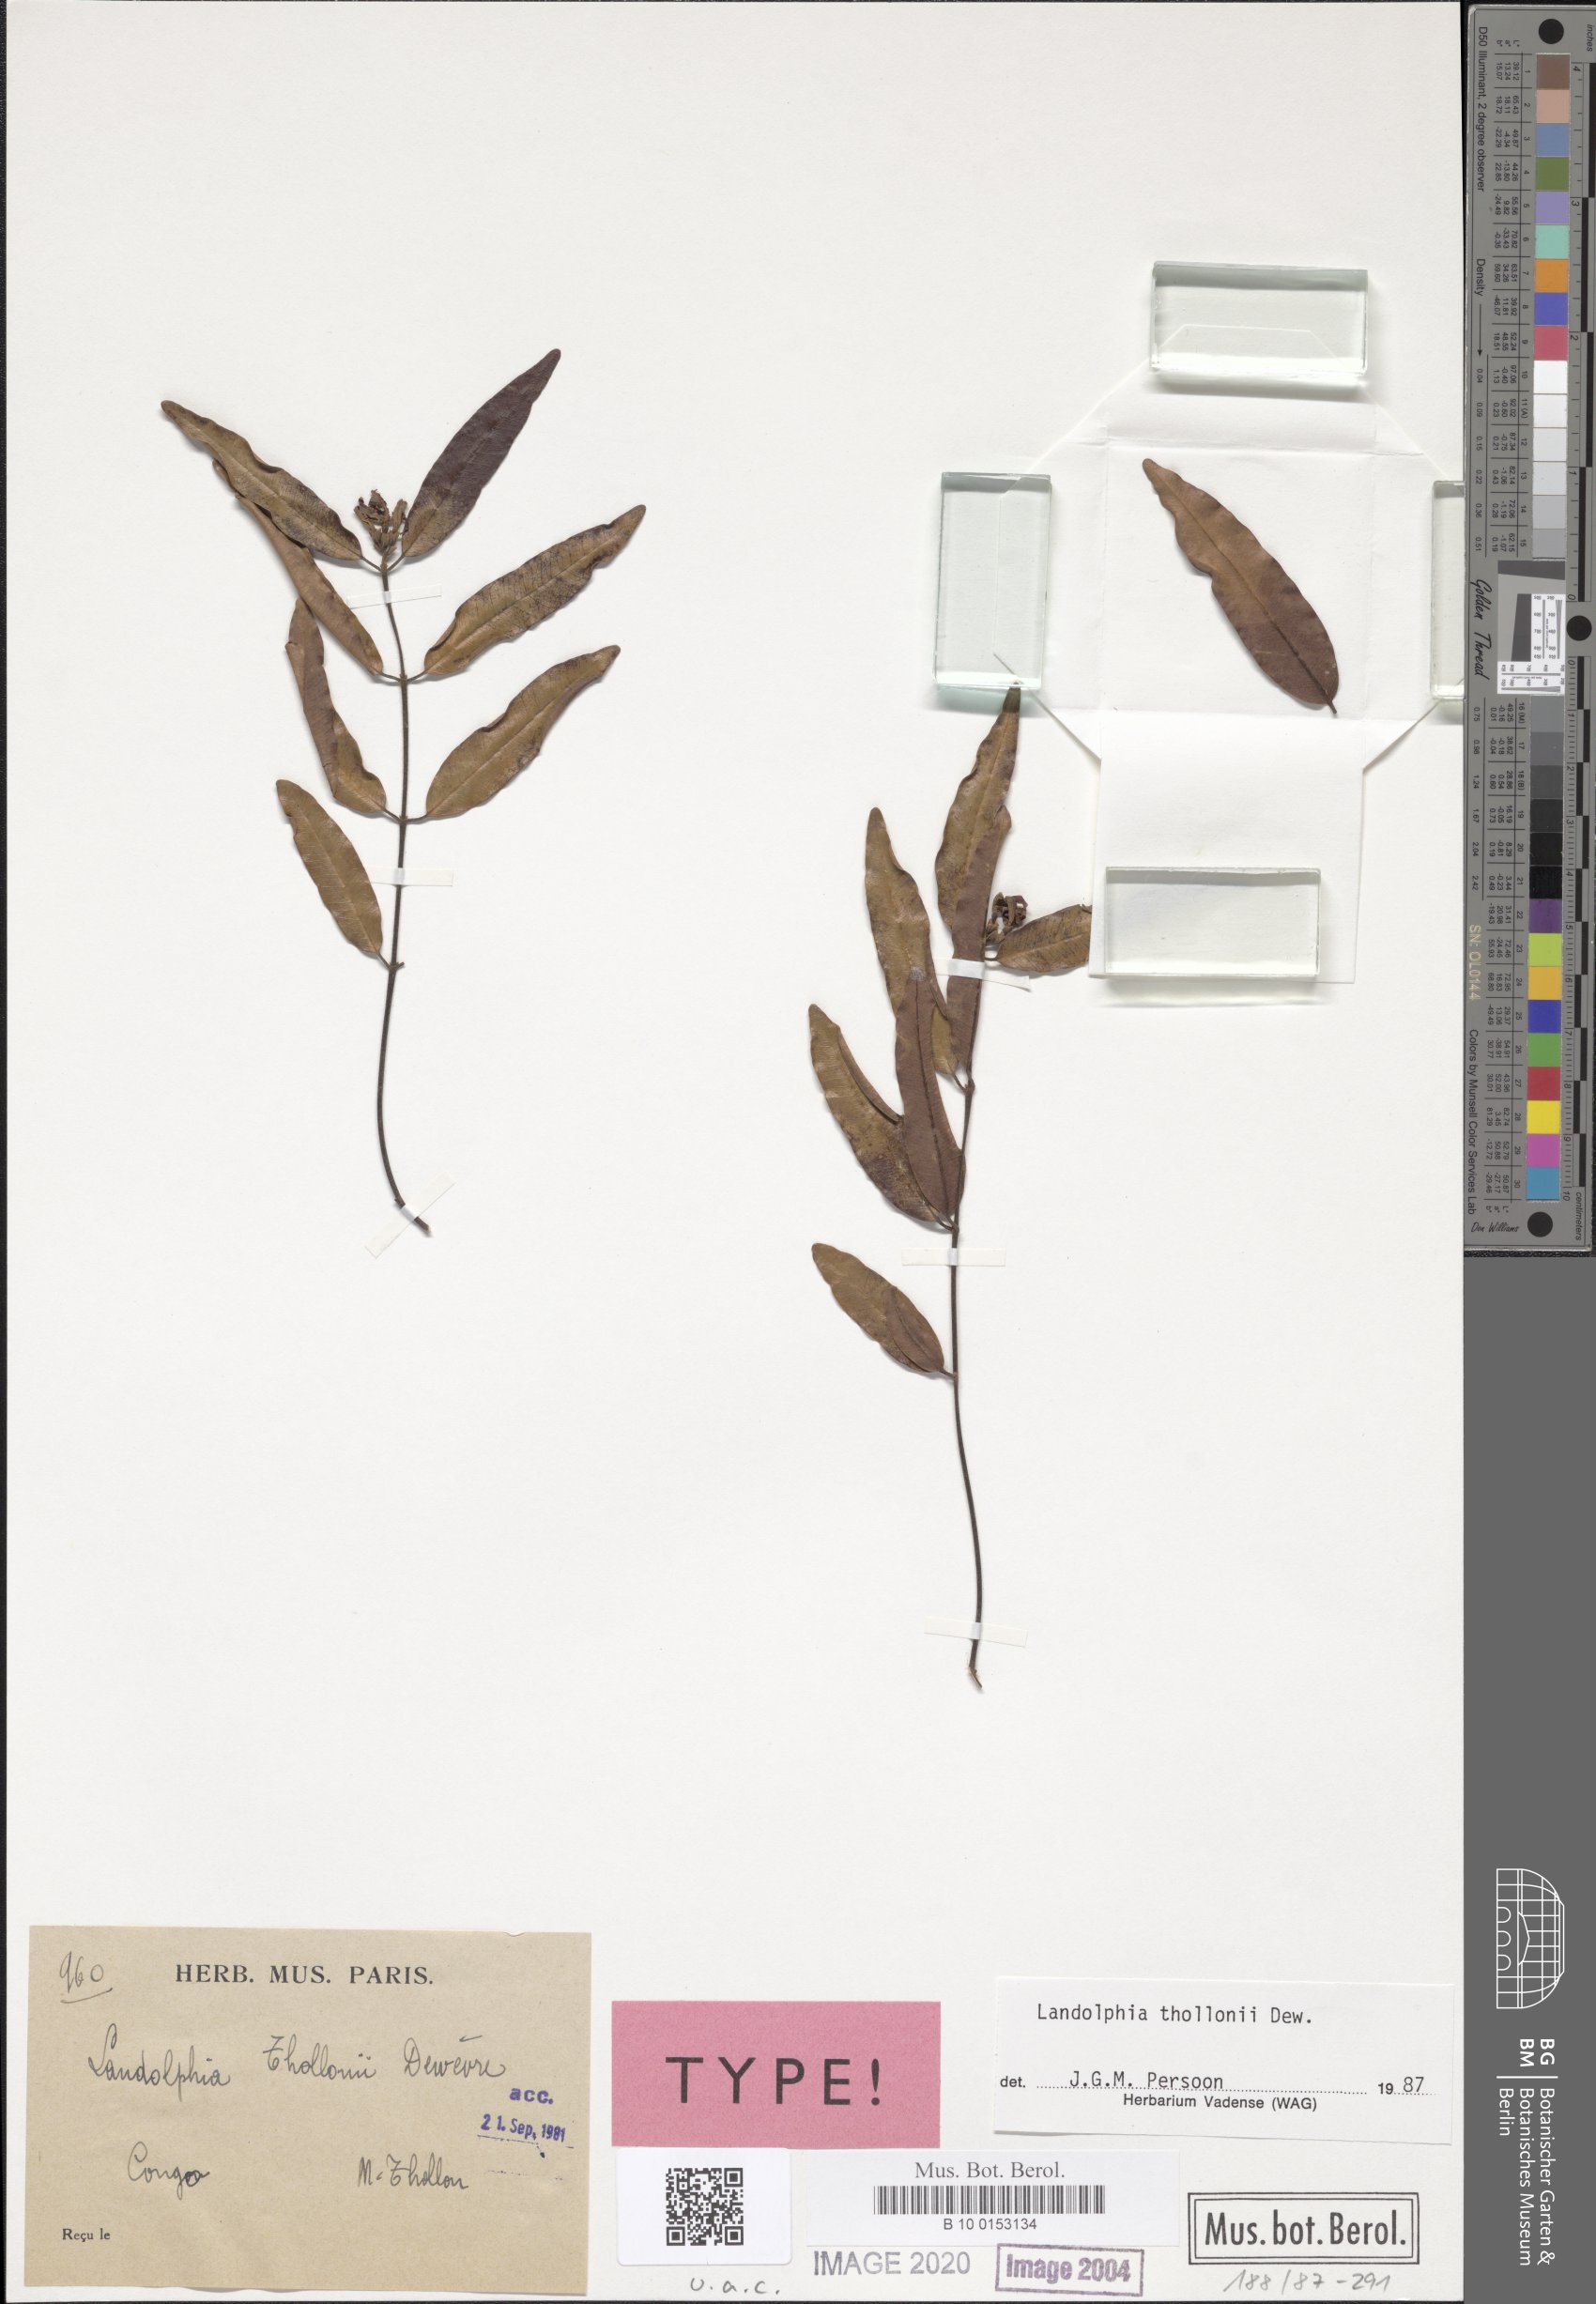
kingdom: Plantae
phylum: Tracheophyta
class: Magnoliopsida
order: Gentianales
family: Apocynaceae
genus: Landolphia
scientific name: Landolphia thollonii
